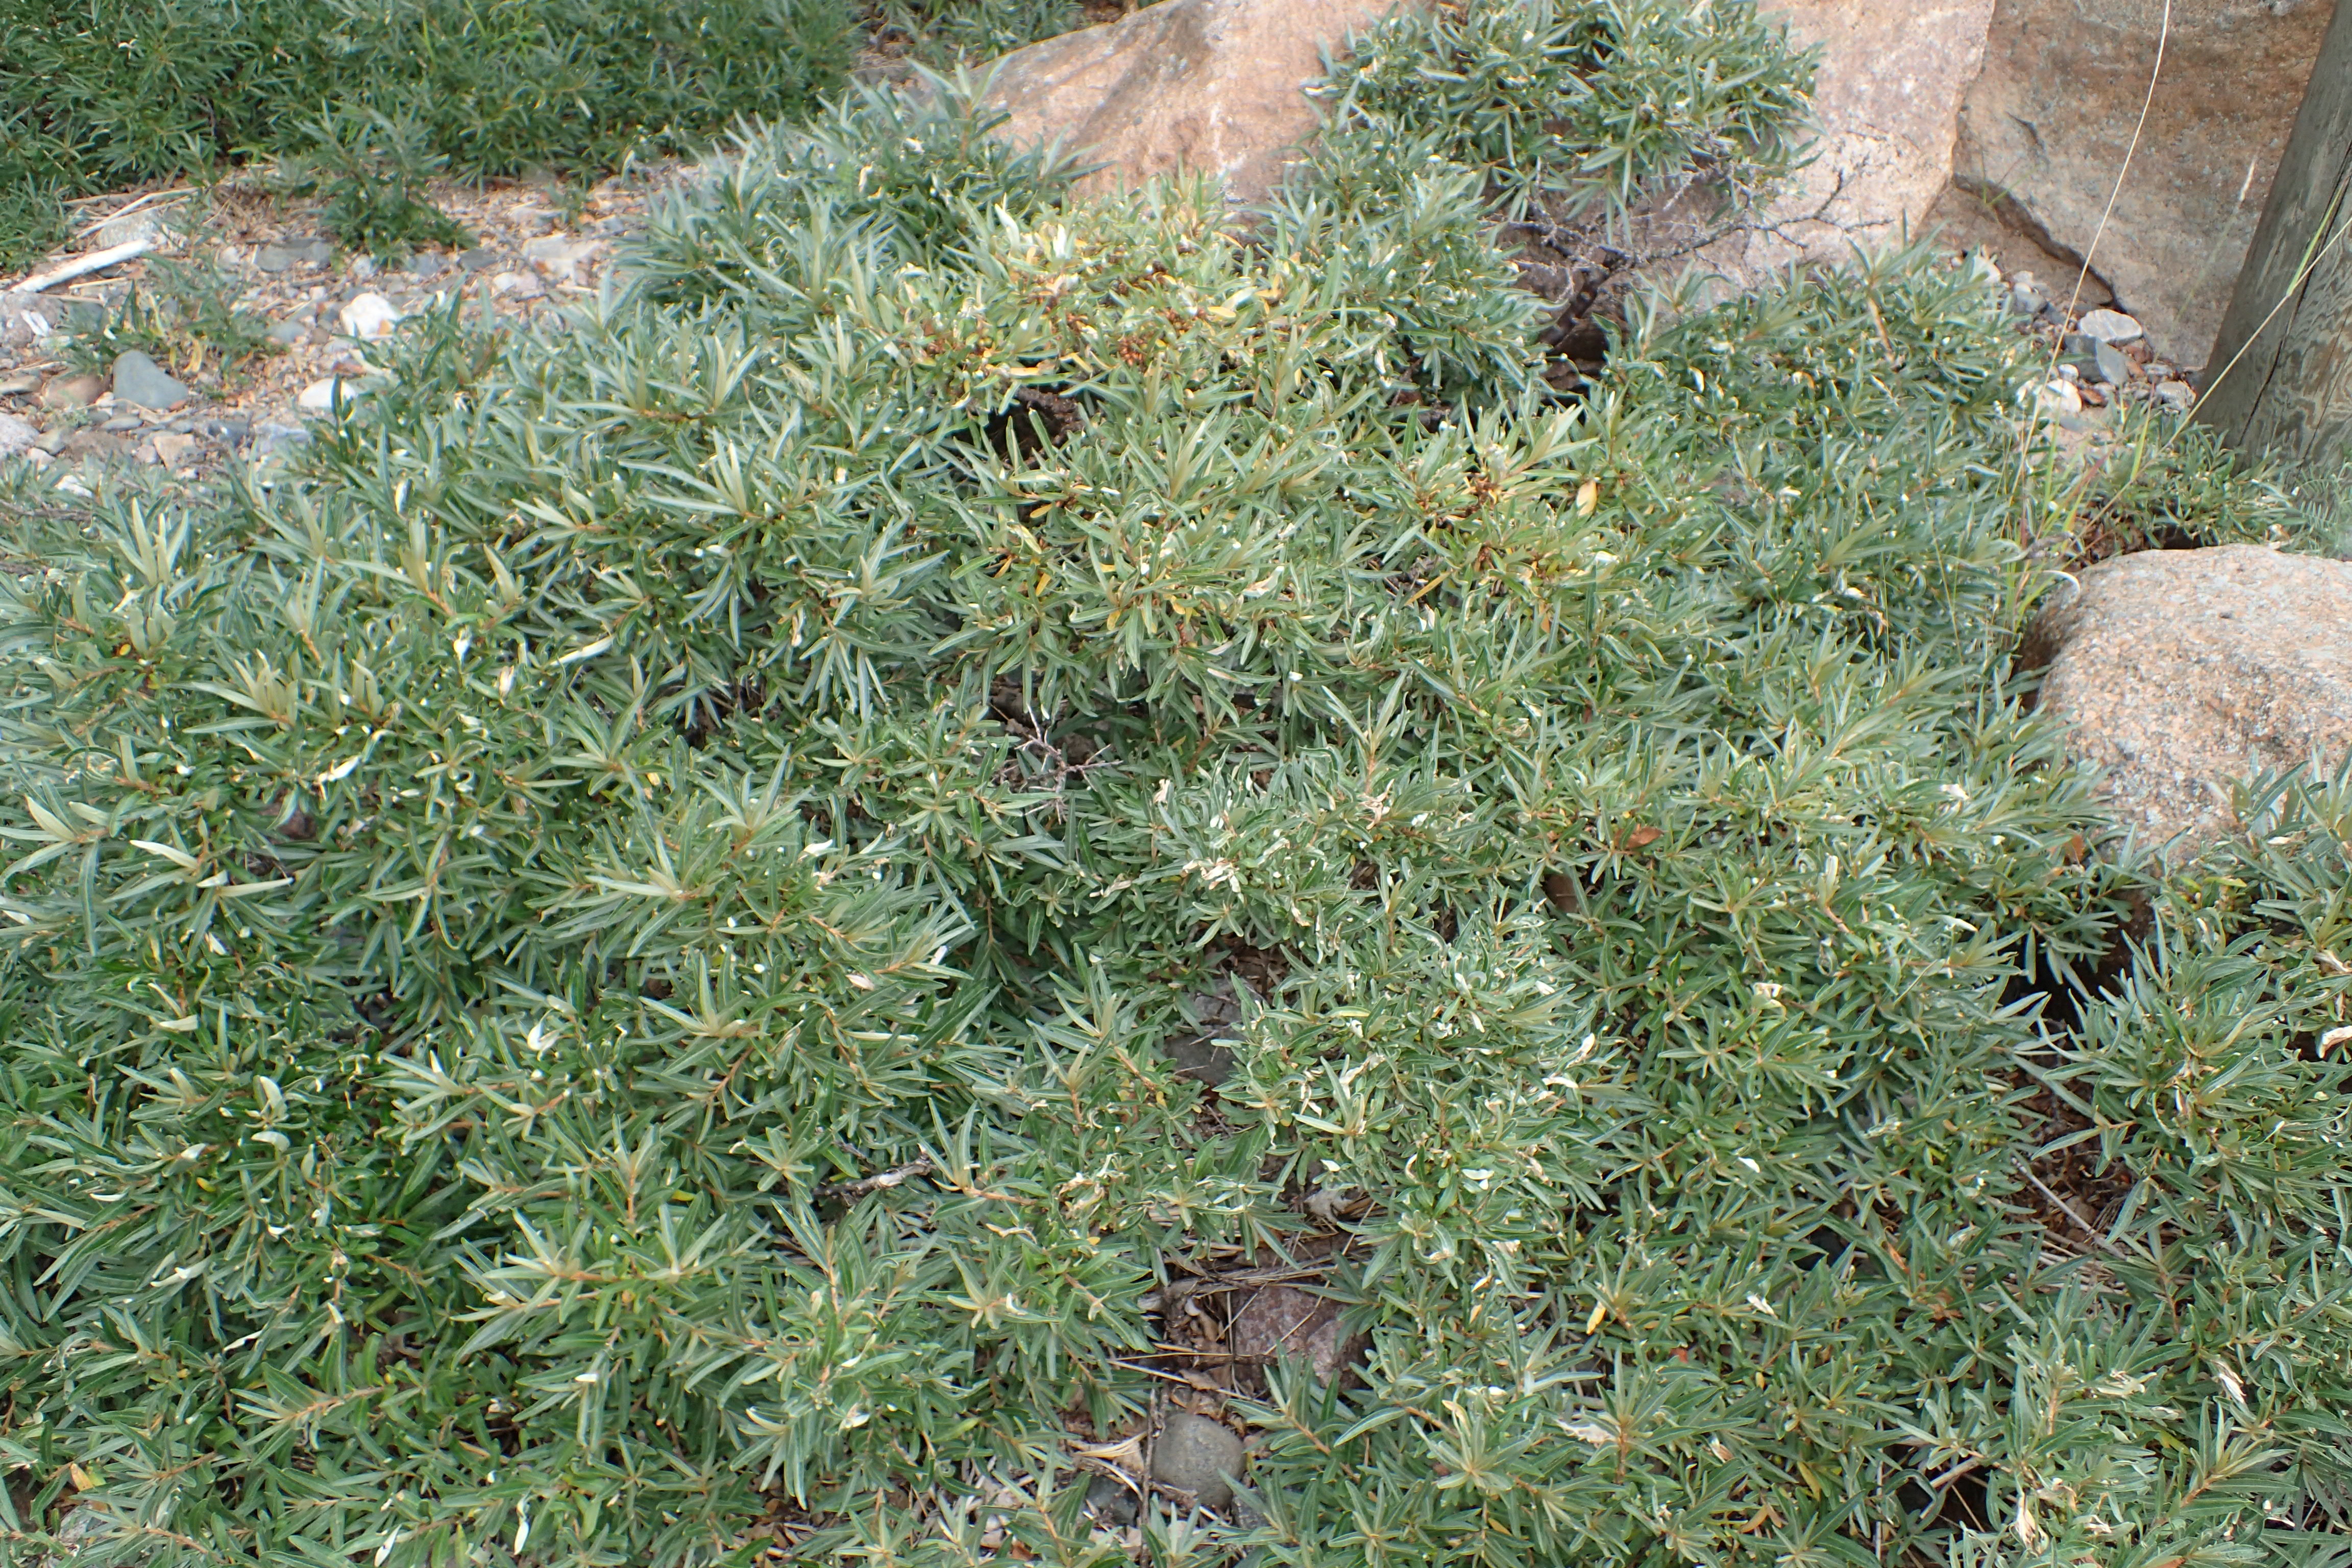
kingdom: Plantae
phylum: Tracheophyta
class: Magnoliopsida
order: Rosales
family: Elaeagnaceae
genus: Hippophae
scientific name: Hippophae rhamnoides
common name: Sea-buckthorn
